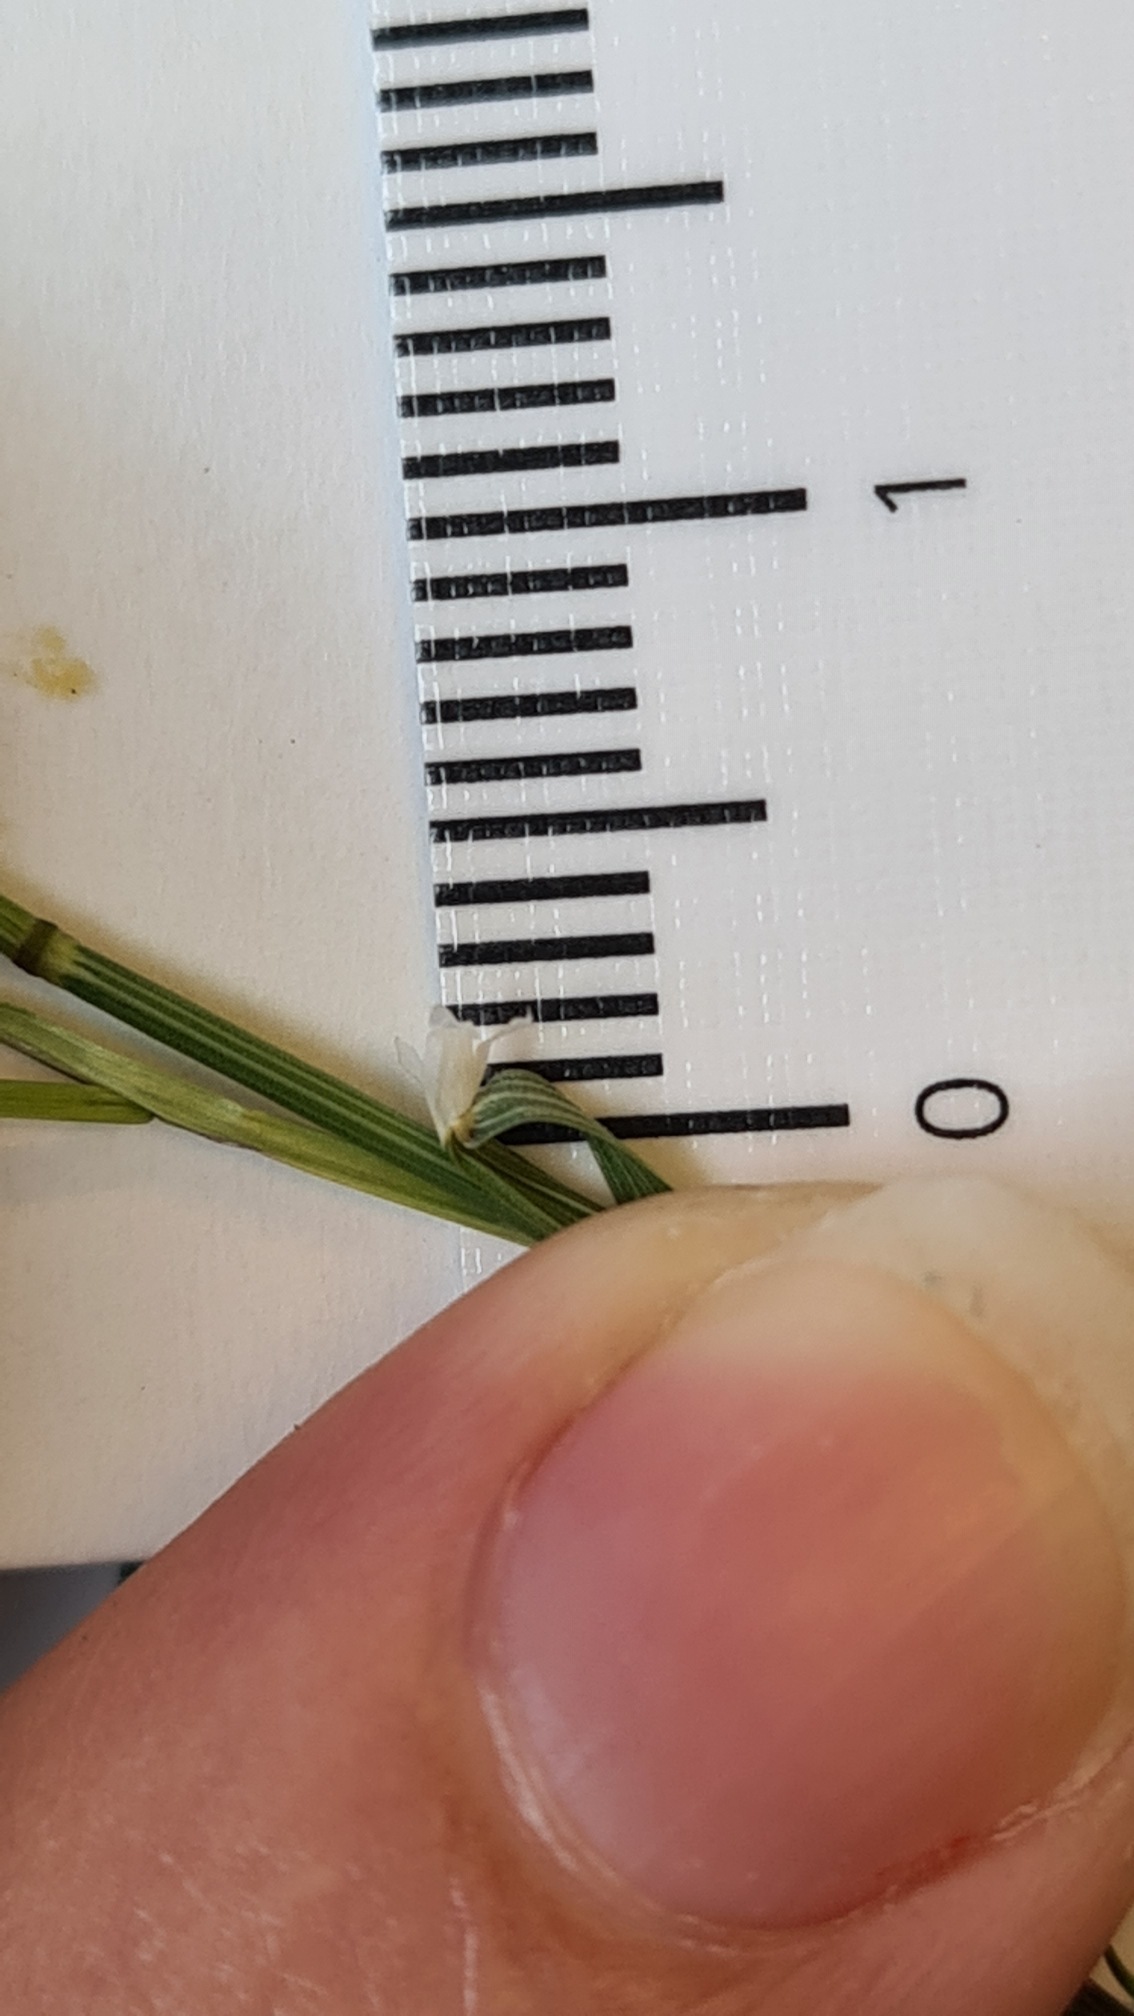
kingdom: Plantae
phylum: Tracheophyta
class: Liliopsida
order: Poales
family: Poaceae
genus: Poa
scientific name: Poa palustris
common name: Stortoppet rapgræs
